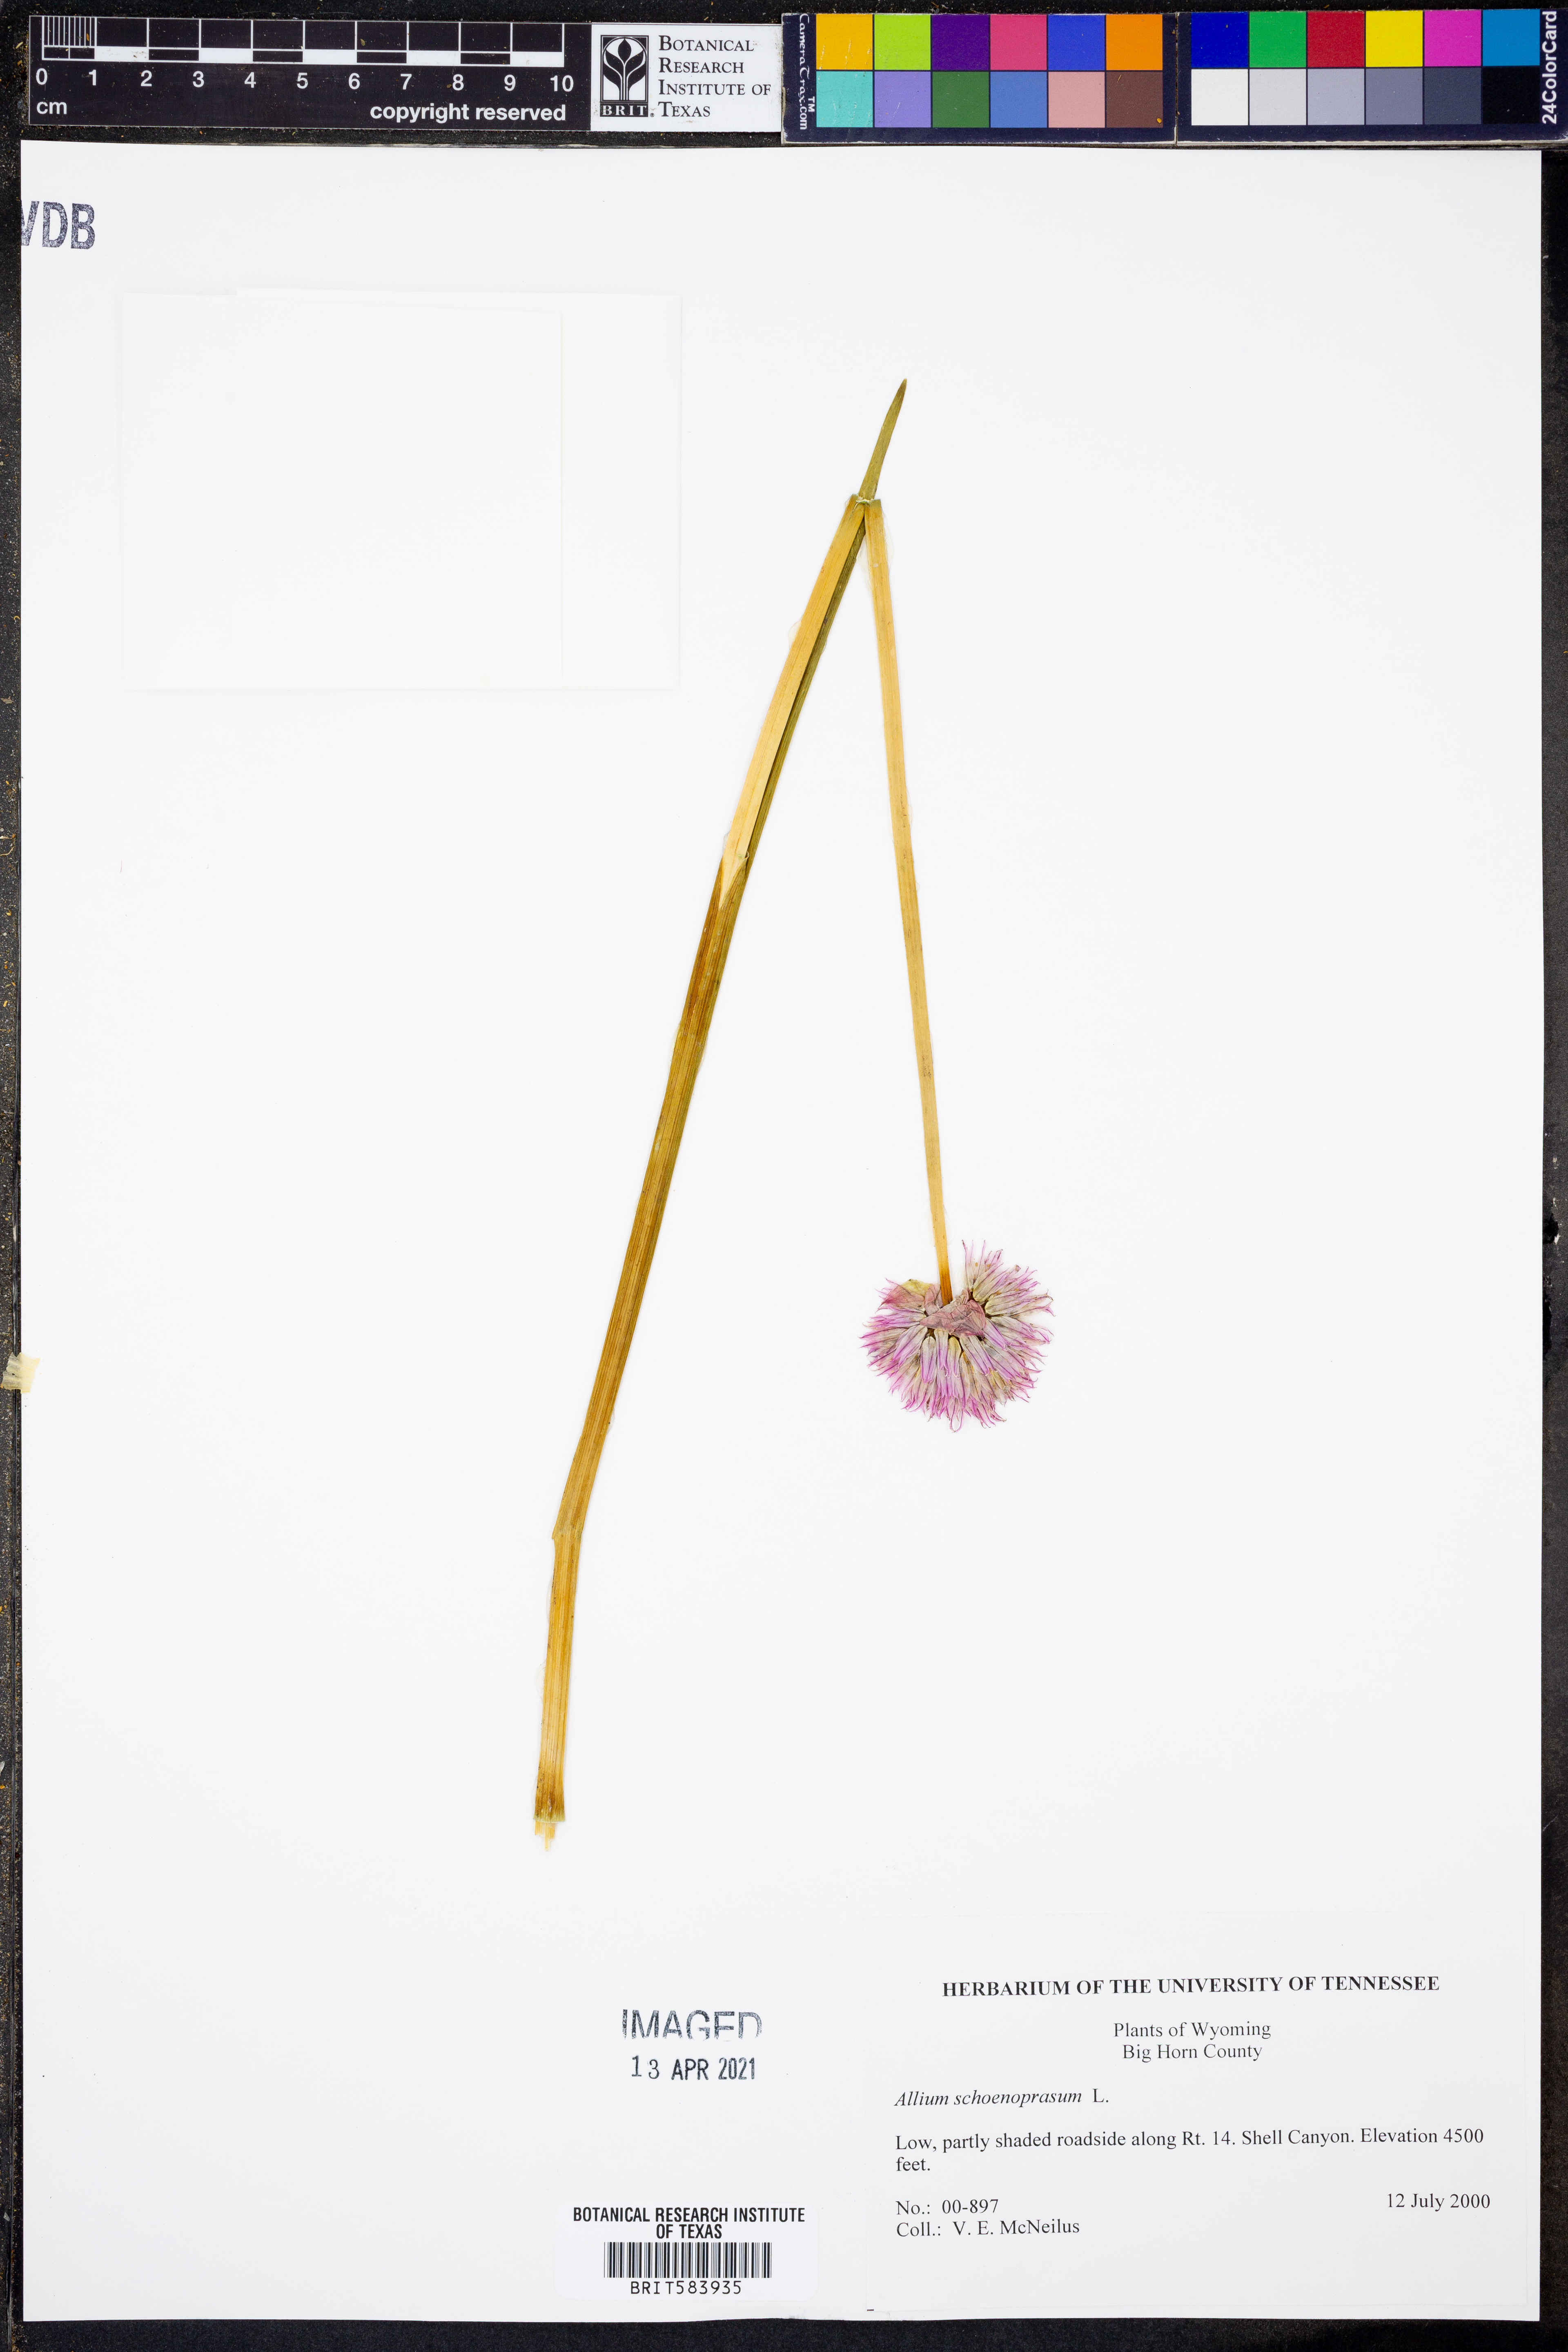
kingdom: Plantae
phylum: Tracheophyta
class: Liliopsida
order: Asparagales
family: Amaryllidaceae
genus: Allium
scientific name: Allium schoenoprasum
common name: Chives
